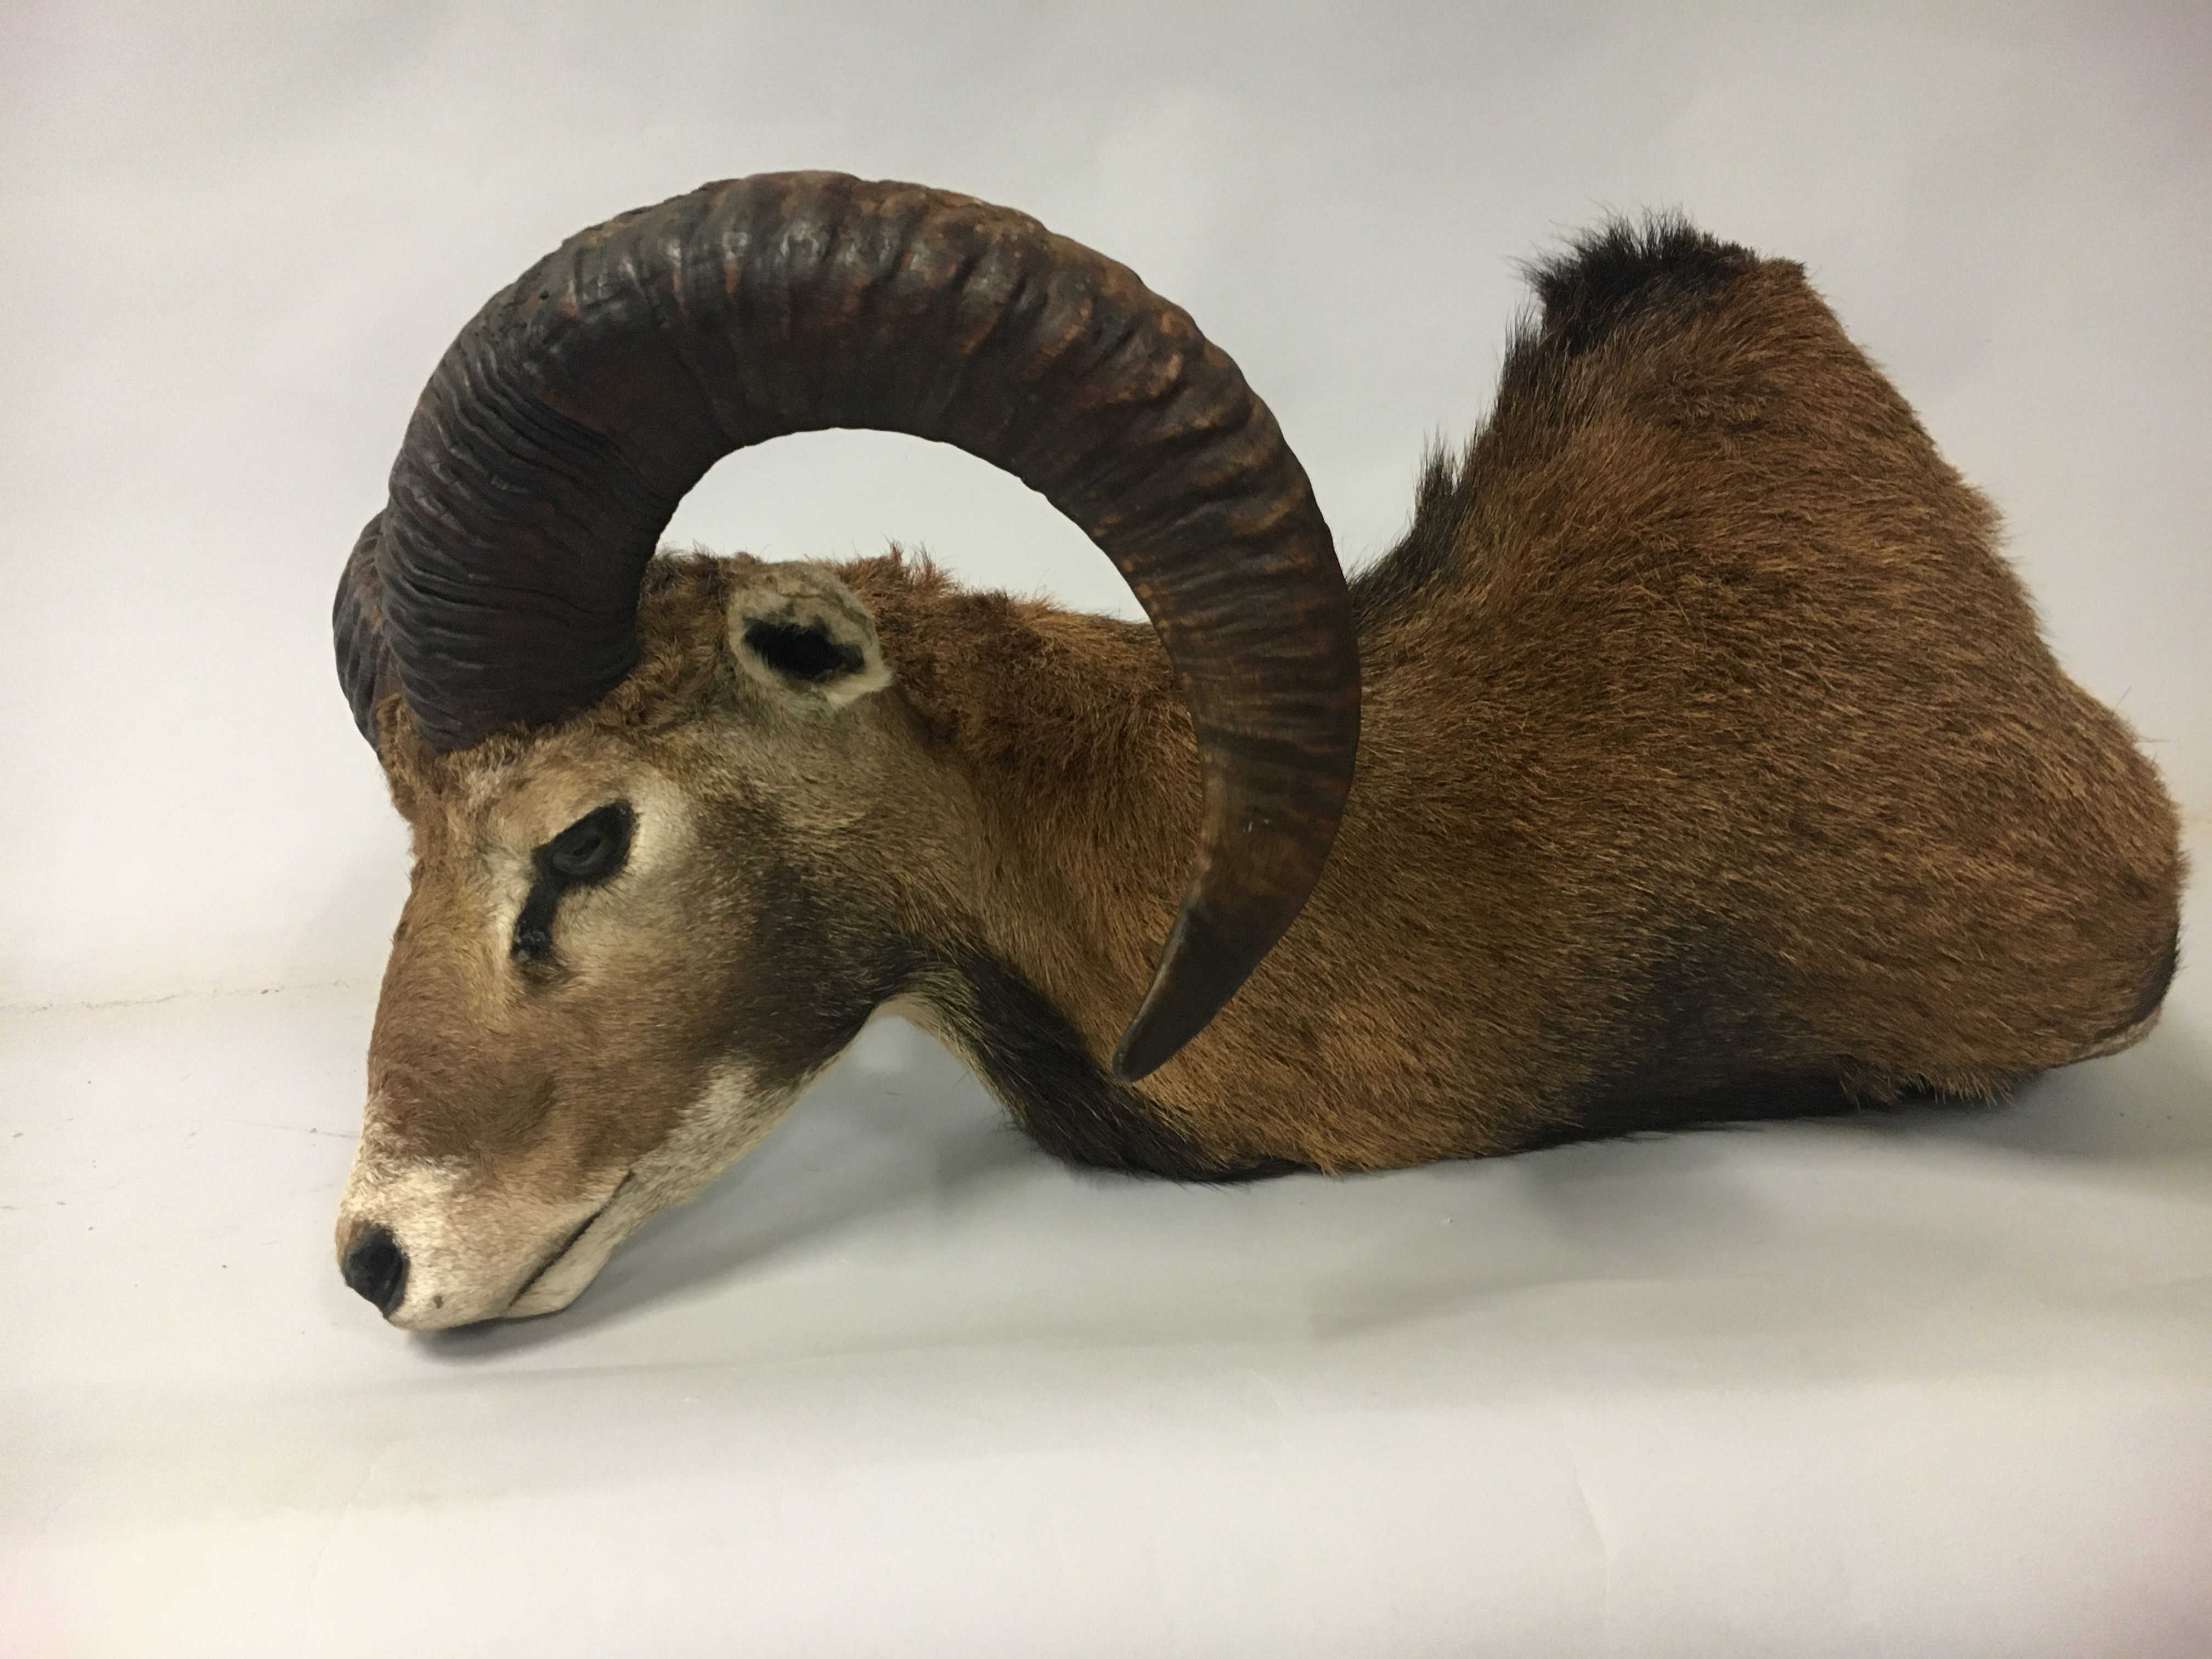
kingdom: Animalia
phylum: Chordata
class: Mammalia
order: Artiodactyla
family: Bovidae
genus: Ovis
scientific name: Ovis aries
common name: Domestic sheep
